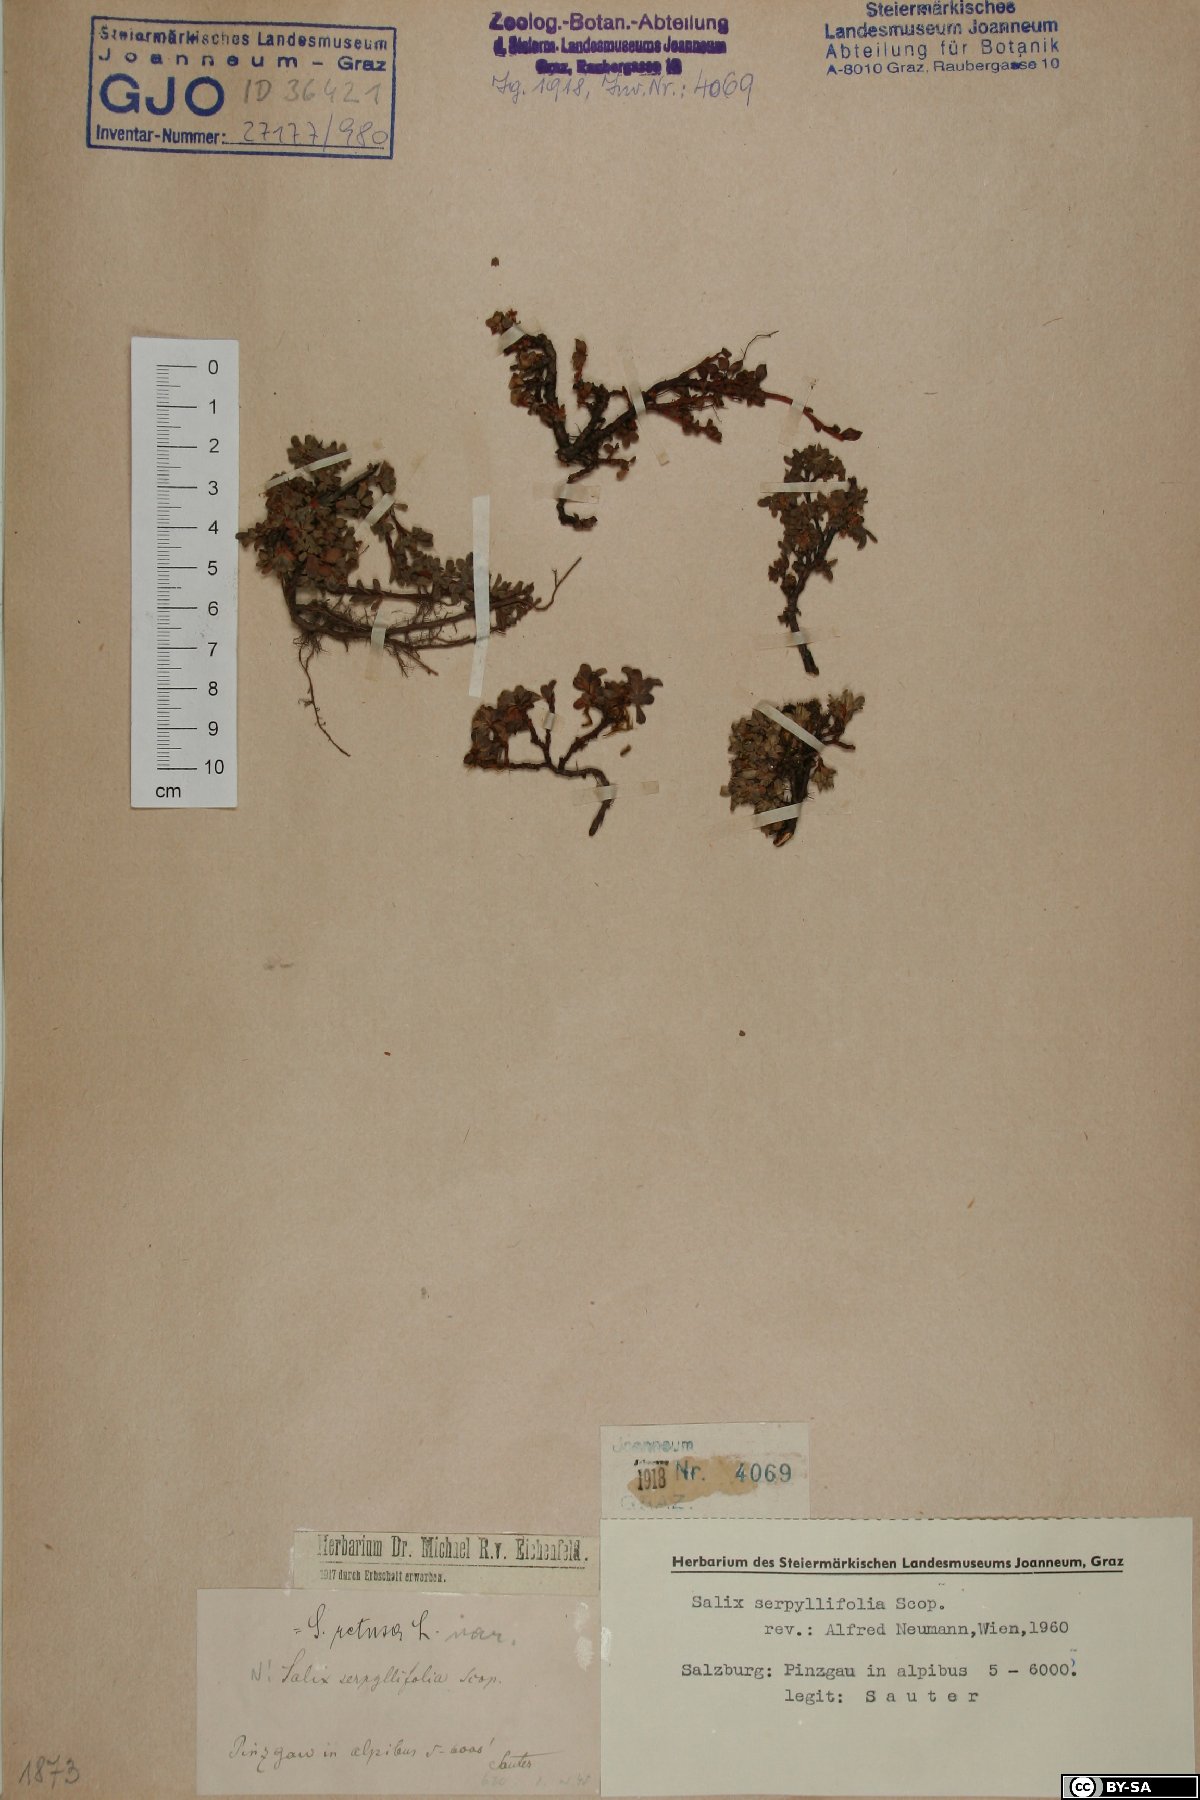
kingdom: Plantae
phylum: Tracheophyta
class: Magnoliopsida
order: Malpighiales
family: Salicaceae
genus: Salix
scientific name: Salix serpillifolia
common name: Thyme-leaf willow
